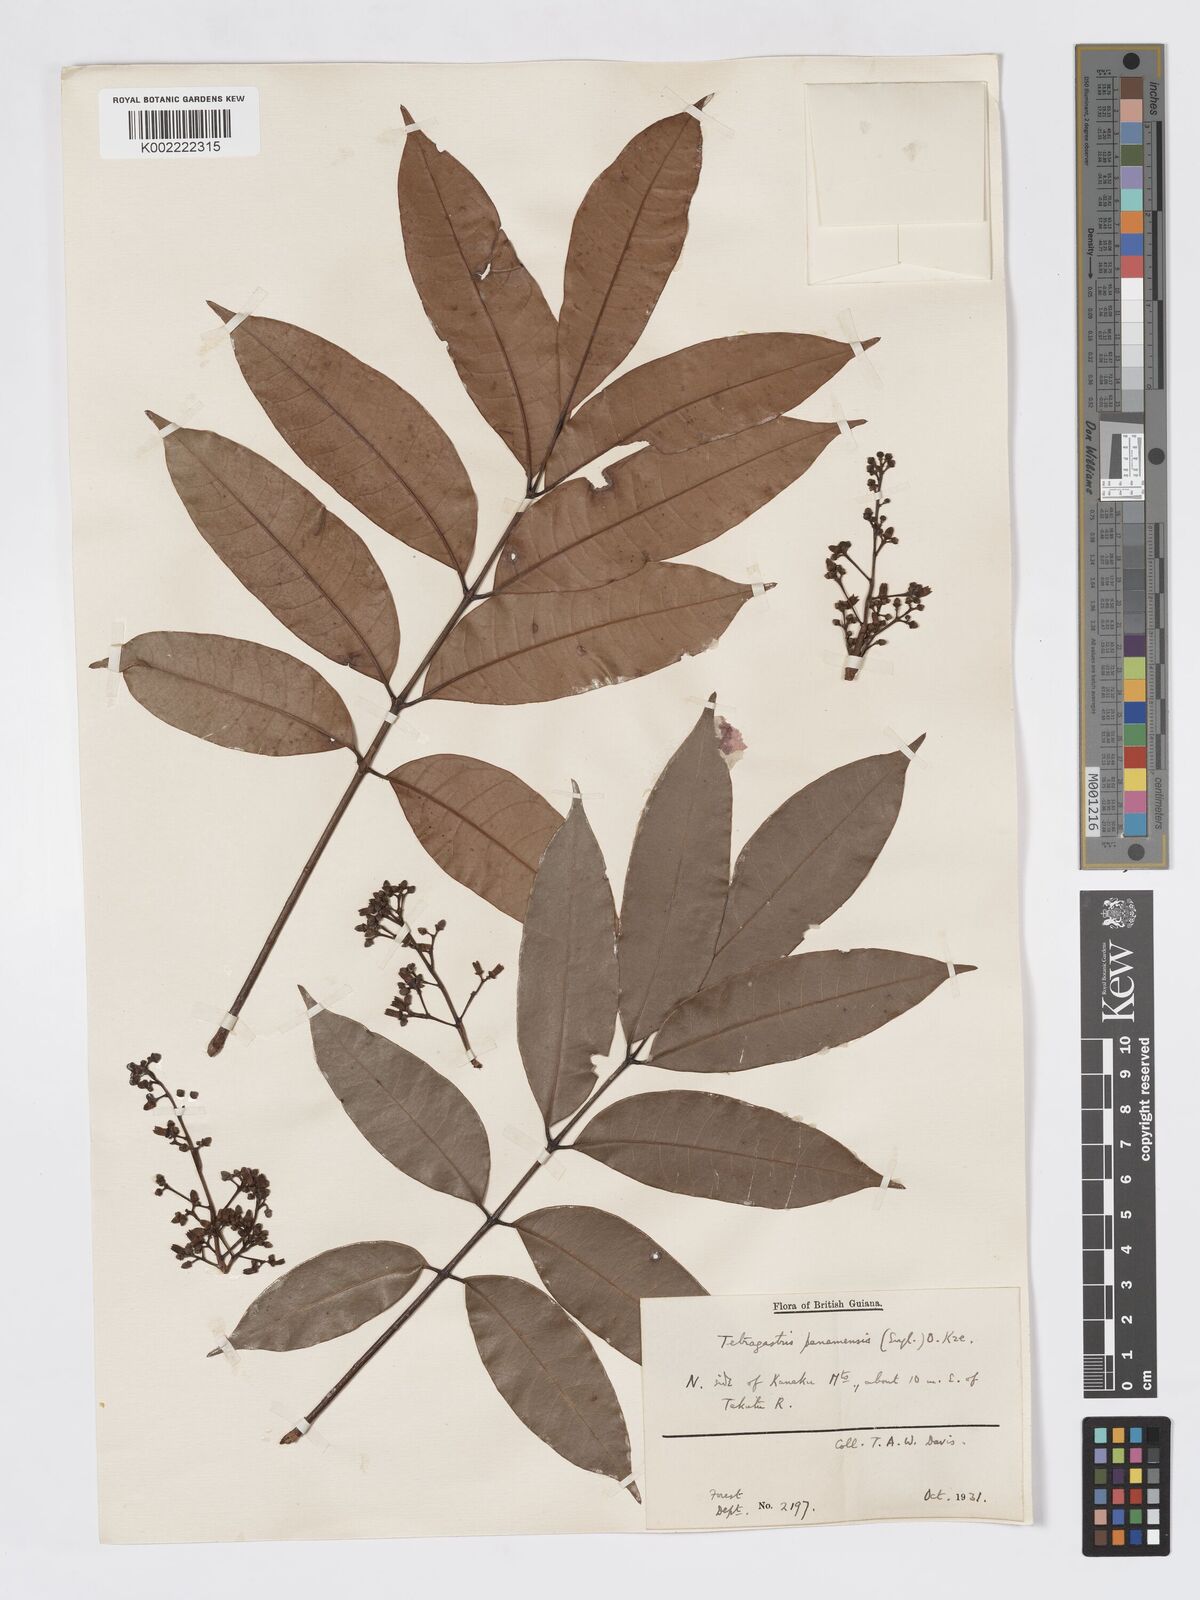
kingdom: Plantae
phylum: Tracheophyta
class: Magnoliopsida
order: Sapindales
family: Burseraceae
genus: Tetragastris
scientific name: Tetragastris panamensis
